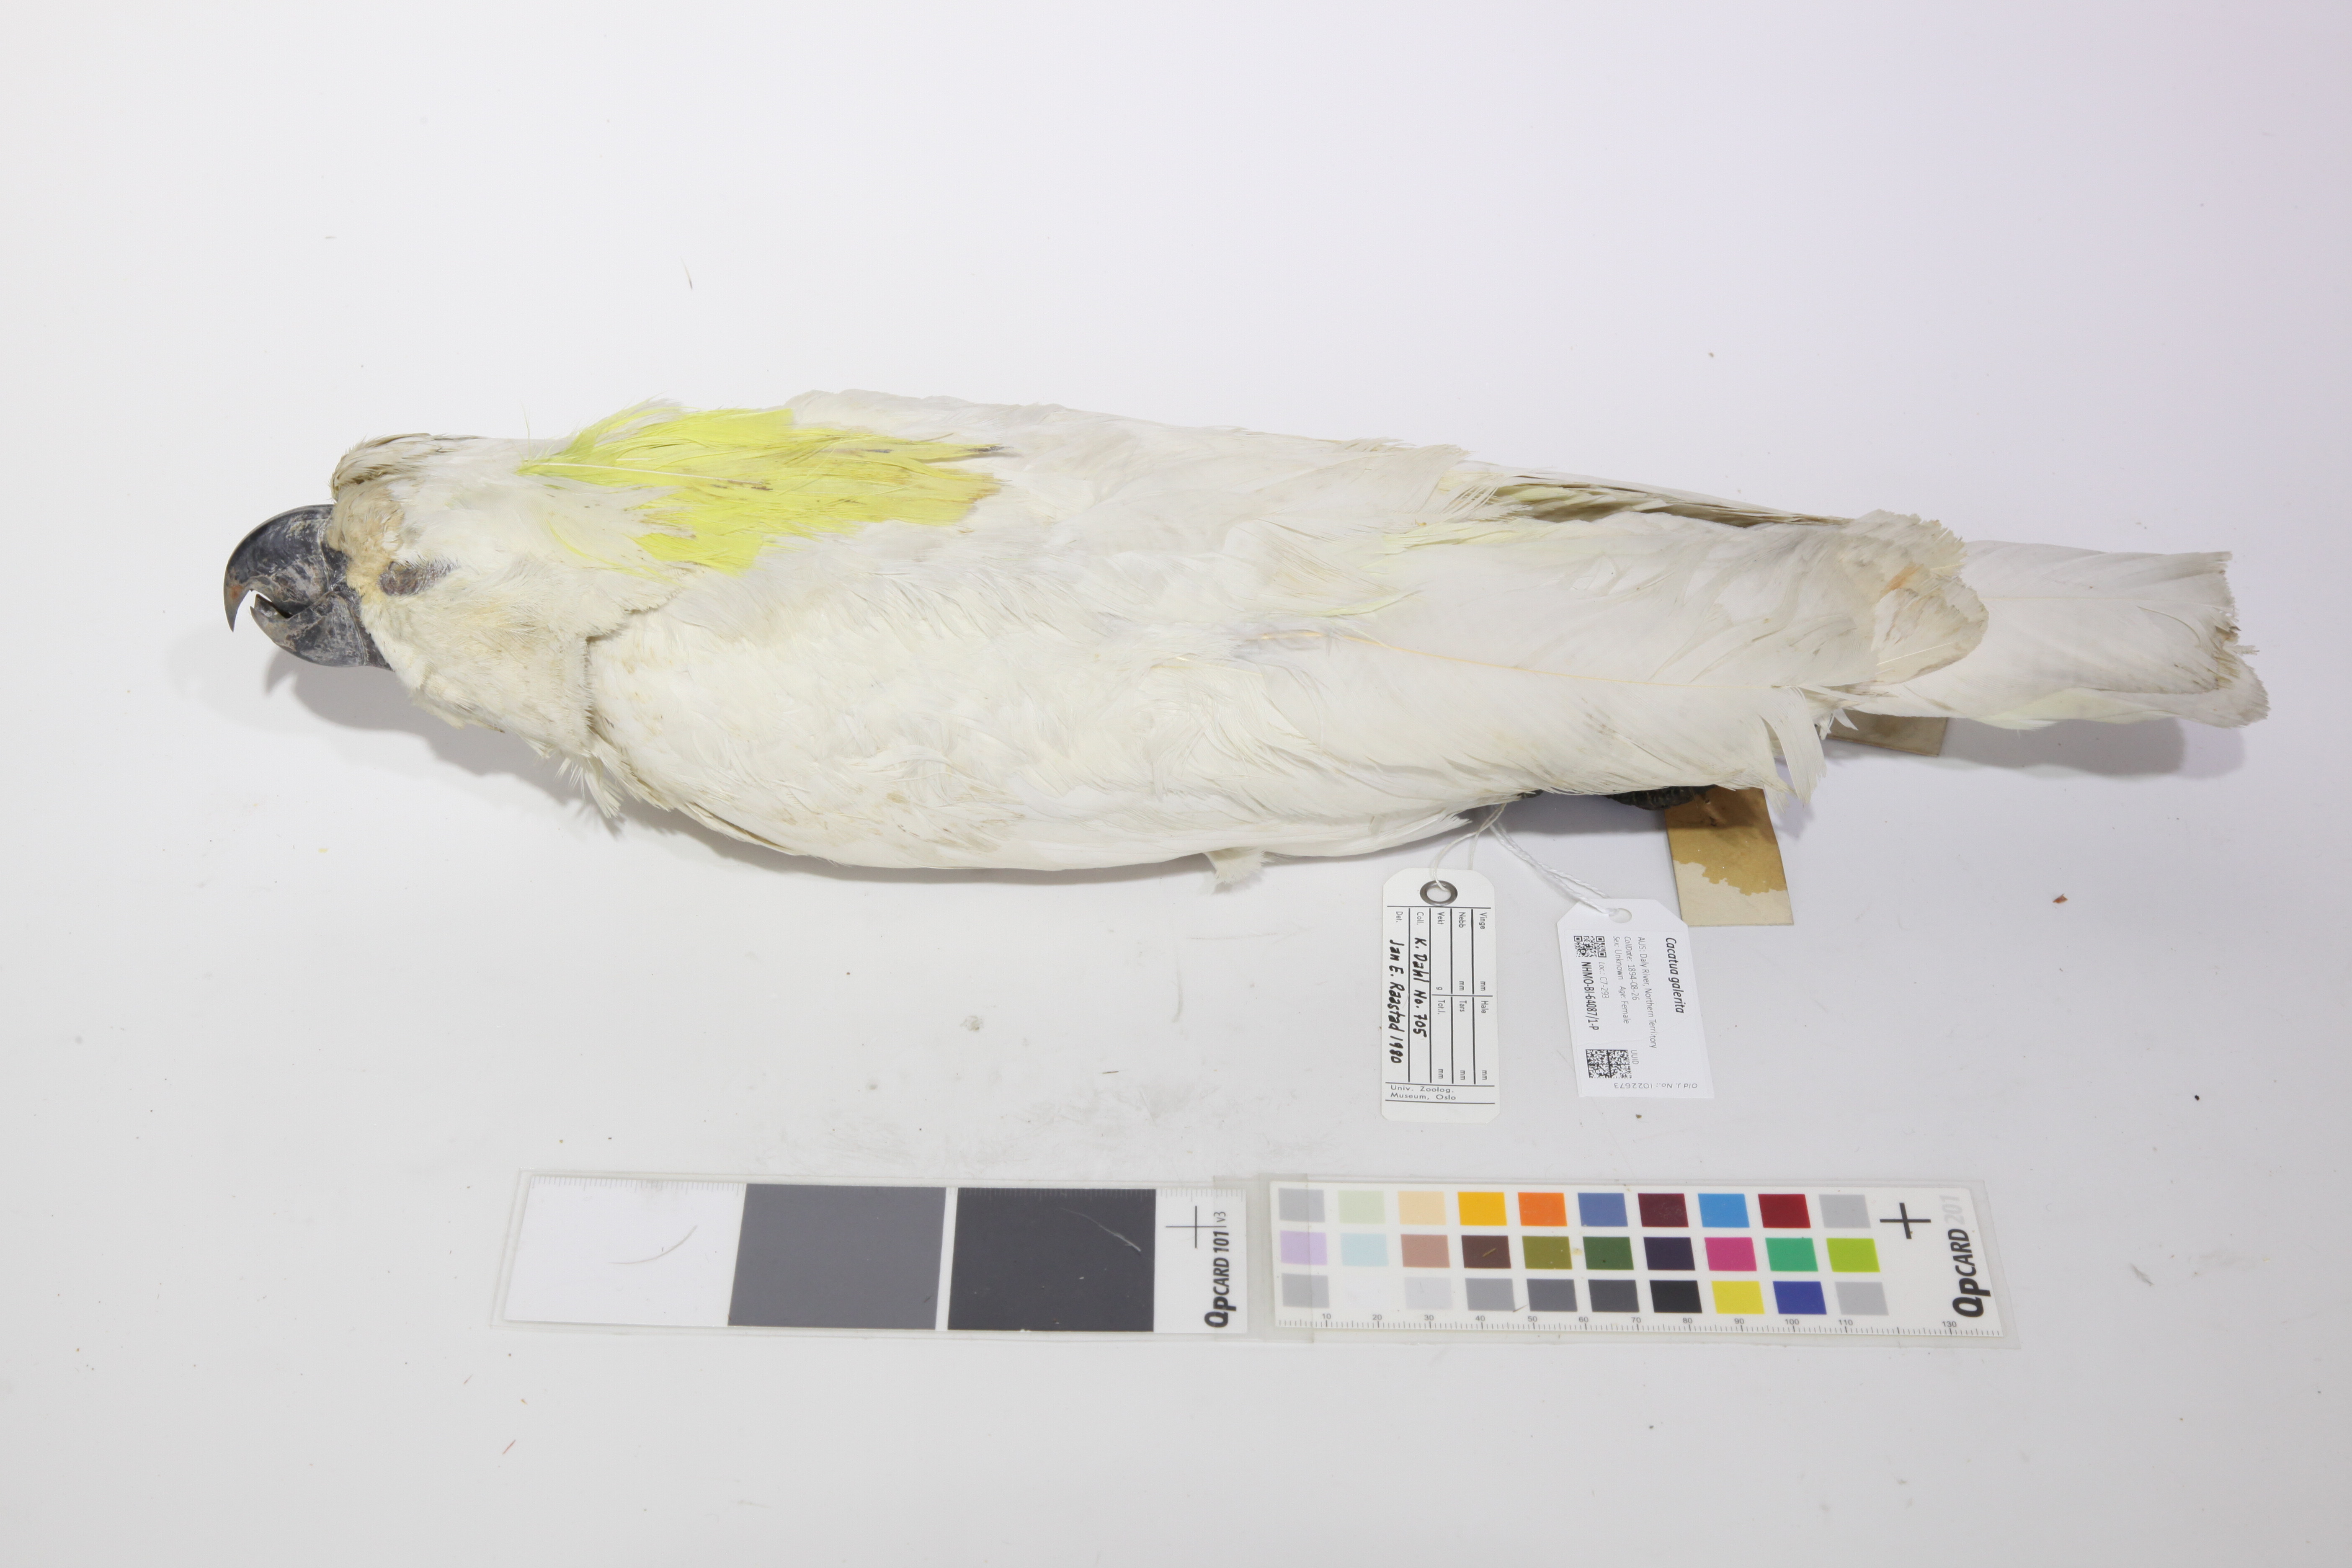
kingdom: Animalia
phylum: Chordata
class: Aves
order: Psittaciformes
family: Psittacidae
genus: Cacatua
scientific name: Cacatua galerita
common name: Sulphur-crested cockatoo
